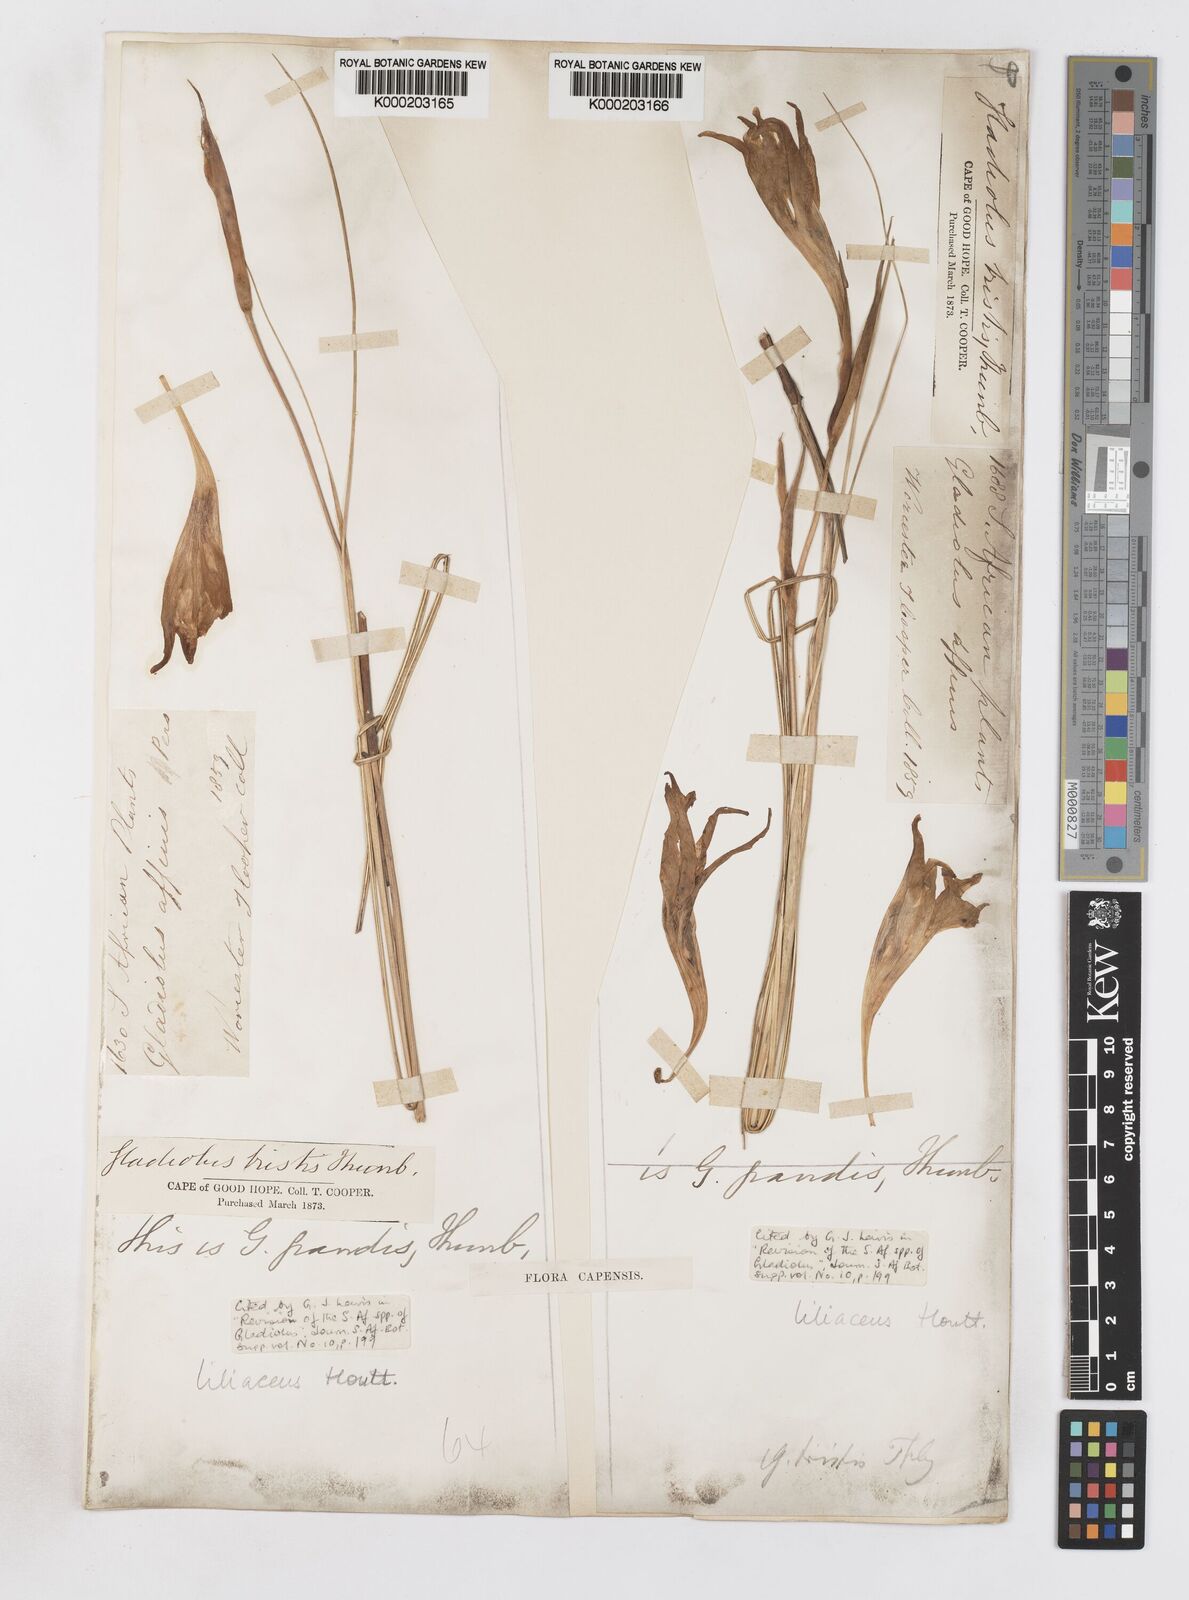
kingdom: Plantae
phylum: Tracheophyta
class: Liliopsida
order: Asparagales
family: Iridaceae
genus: Gladiolus
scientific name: Gladiolus liliaceus
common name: Large brown afrikaner
